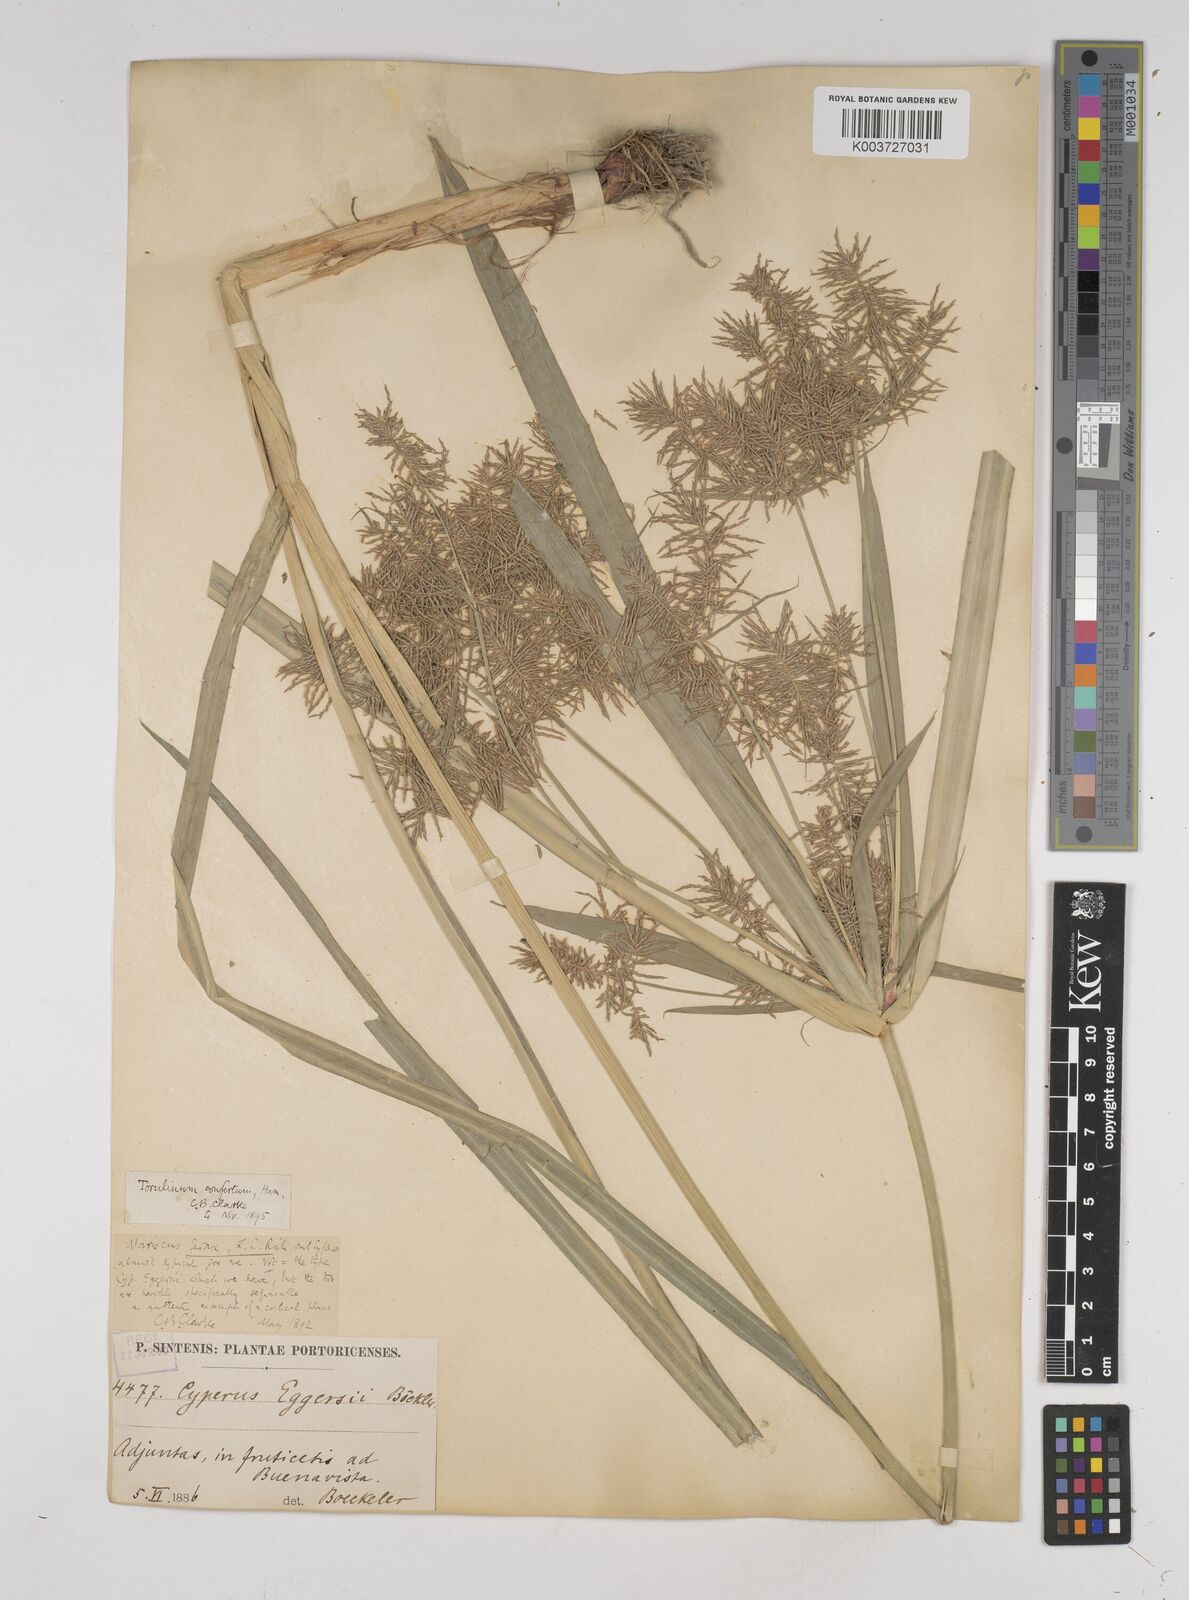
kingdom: Plantae
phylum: Tracheophyta
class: Liliopsida
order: Poales
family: Cyperaceae
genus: Cyperus
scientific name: Cyperus odoratus
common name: Fragrant flatsedge
